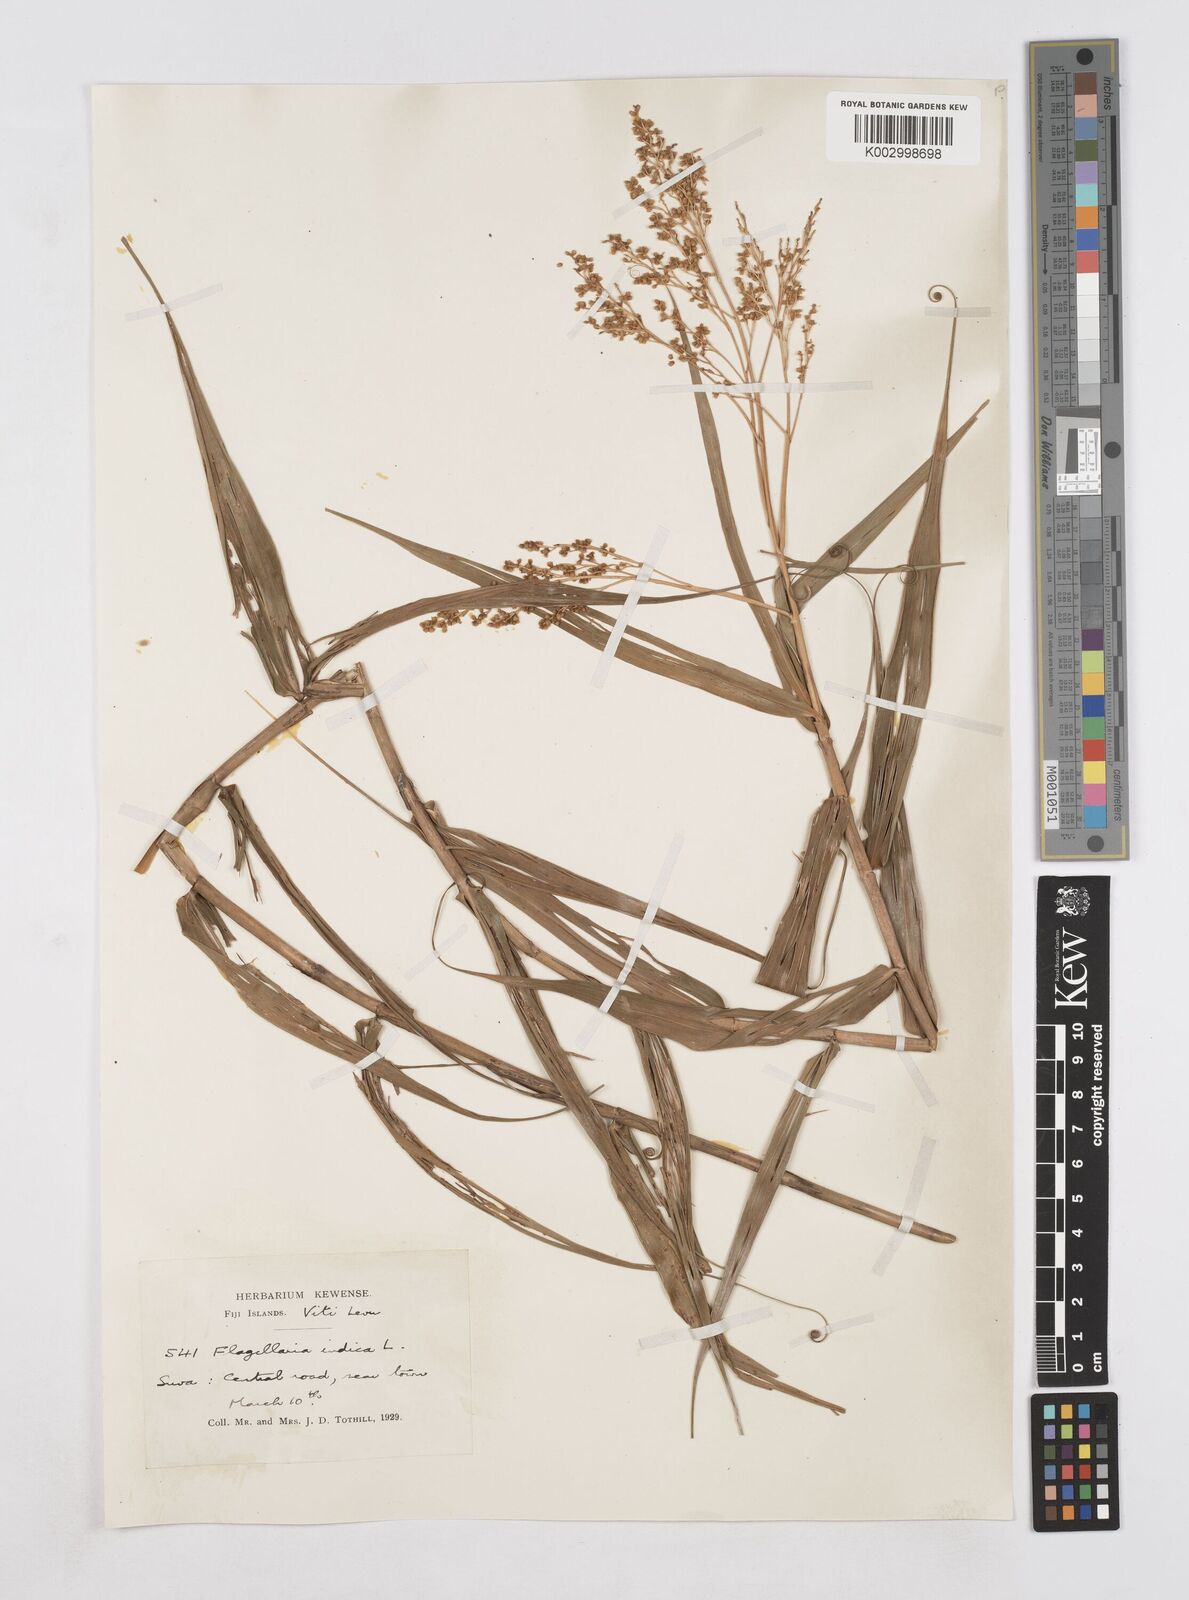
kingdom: Plantae
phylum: Tracheophyta
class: Liliopsida
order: Poales
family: Flagellariaceae
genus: Flagellaria
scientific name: Flagellaria indica
